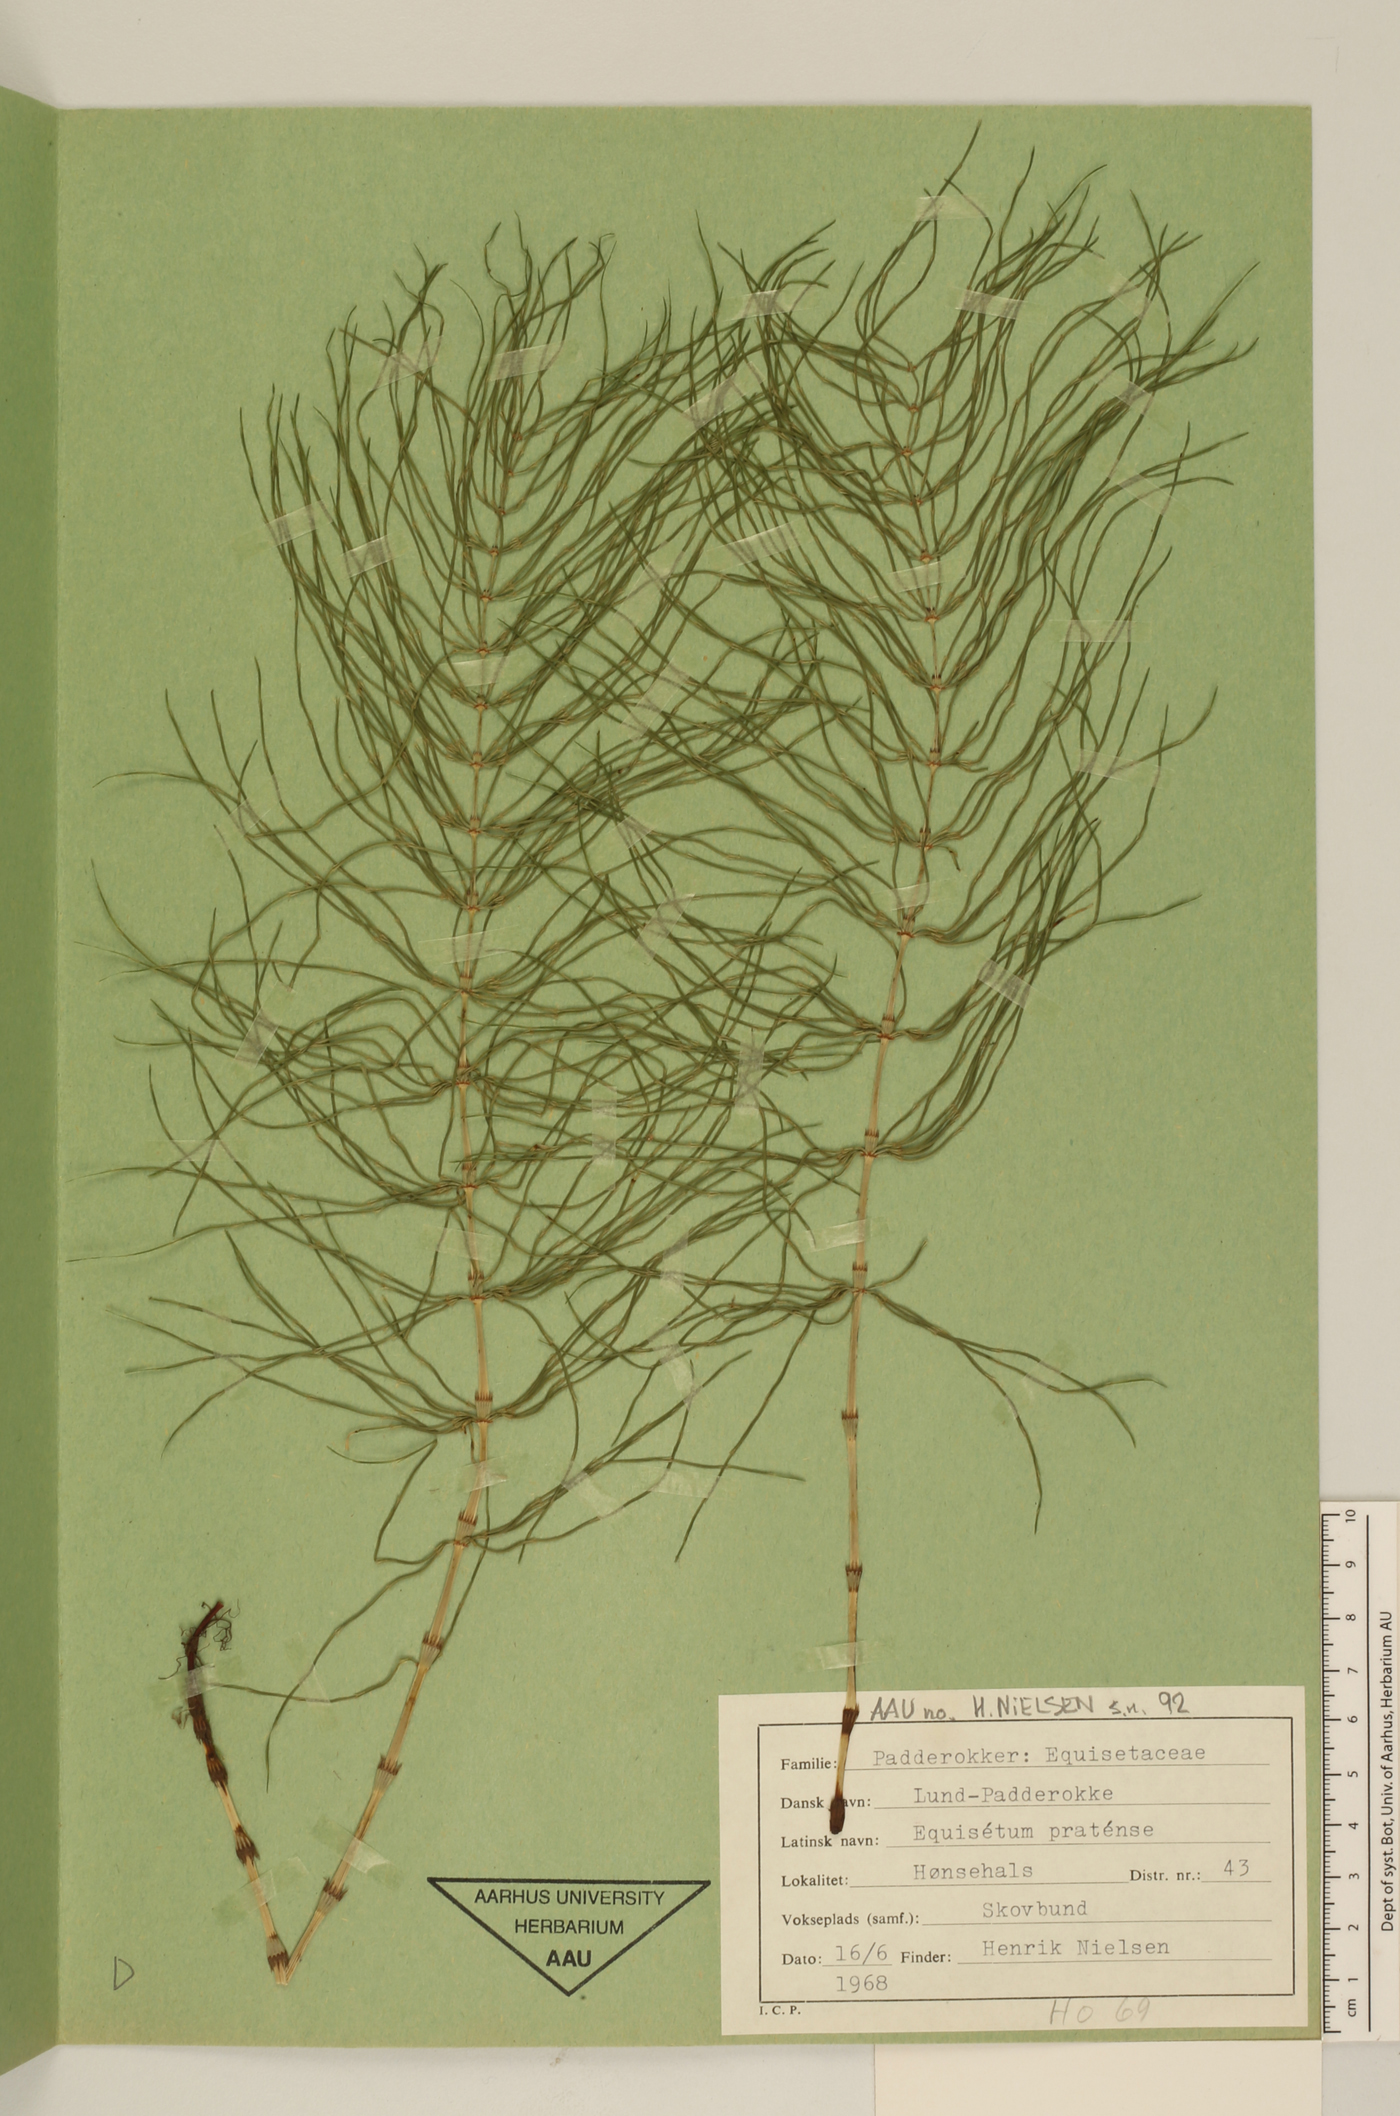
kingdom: Plantae
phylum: Tracheophyta
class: Polypodiopsida
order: Equisetales
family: Equisetaceae
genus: Equisetum
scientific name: Equisetum pratense
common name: Meadow horsetail
